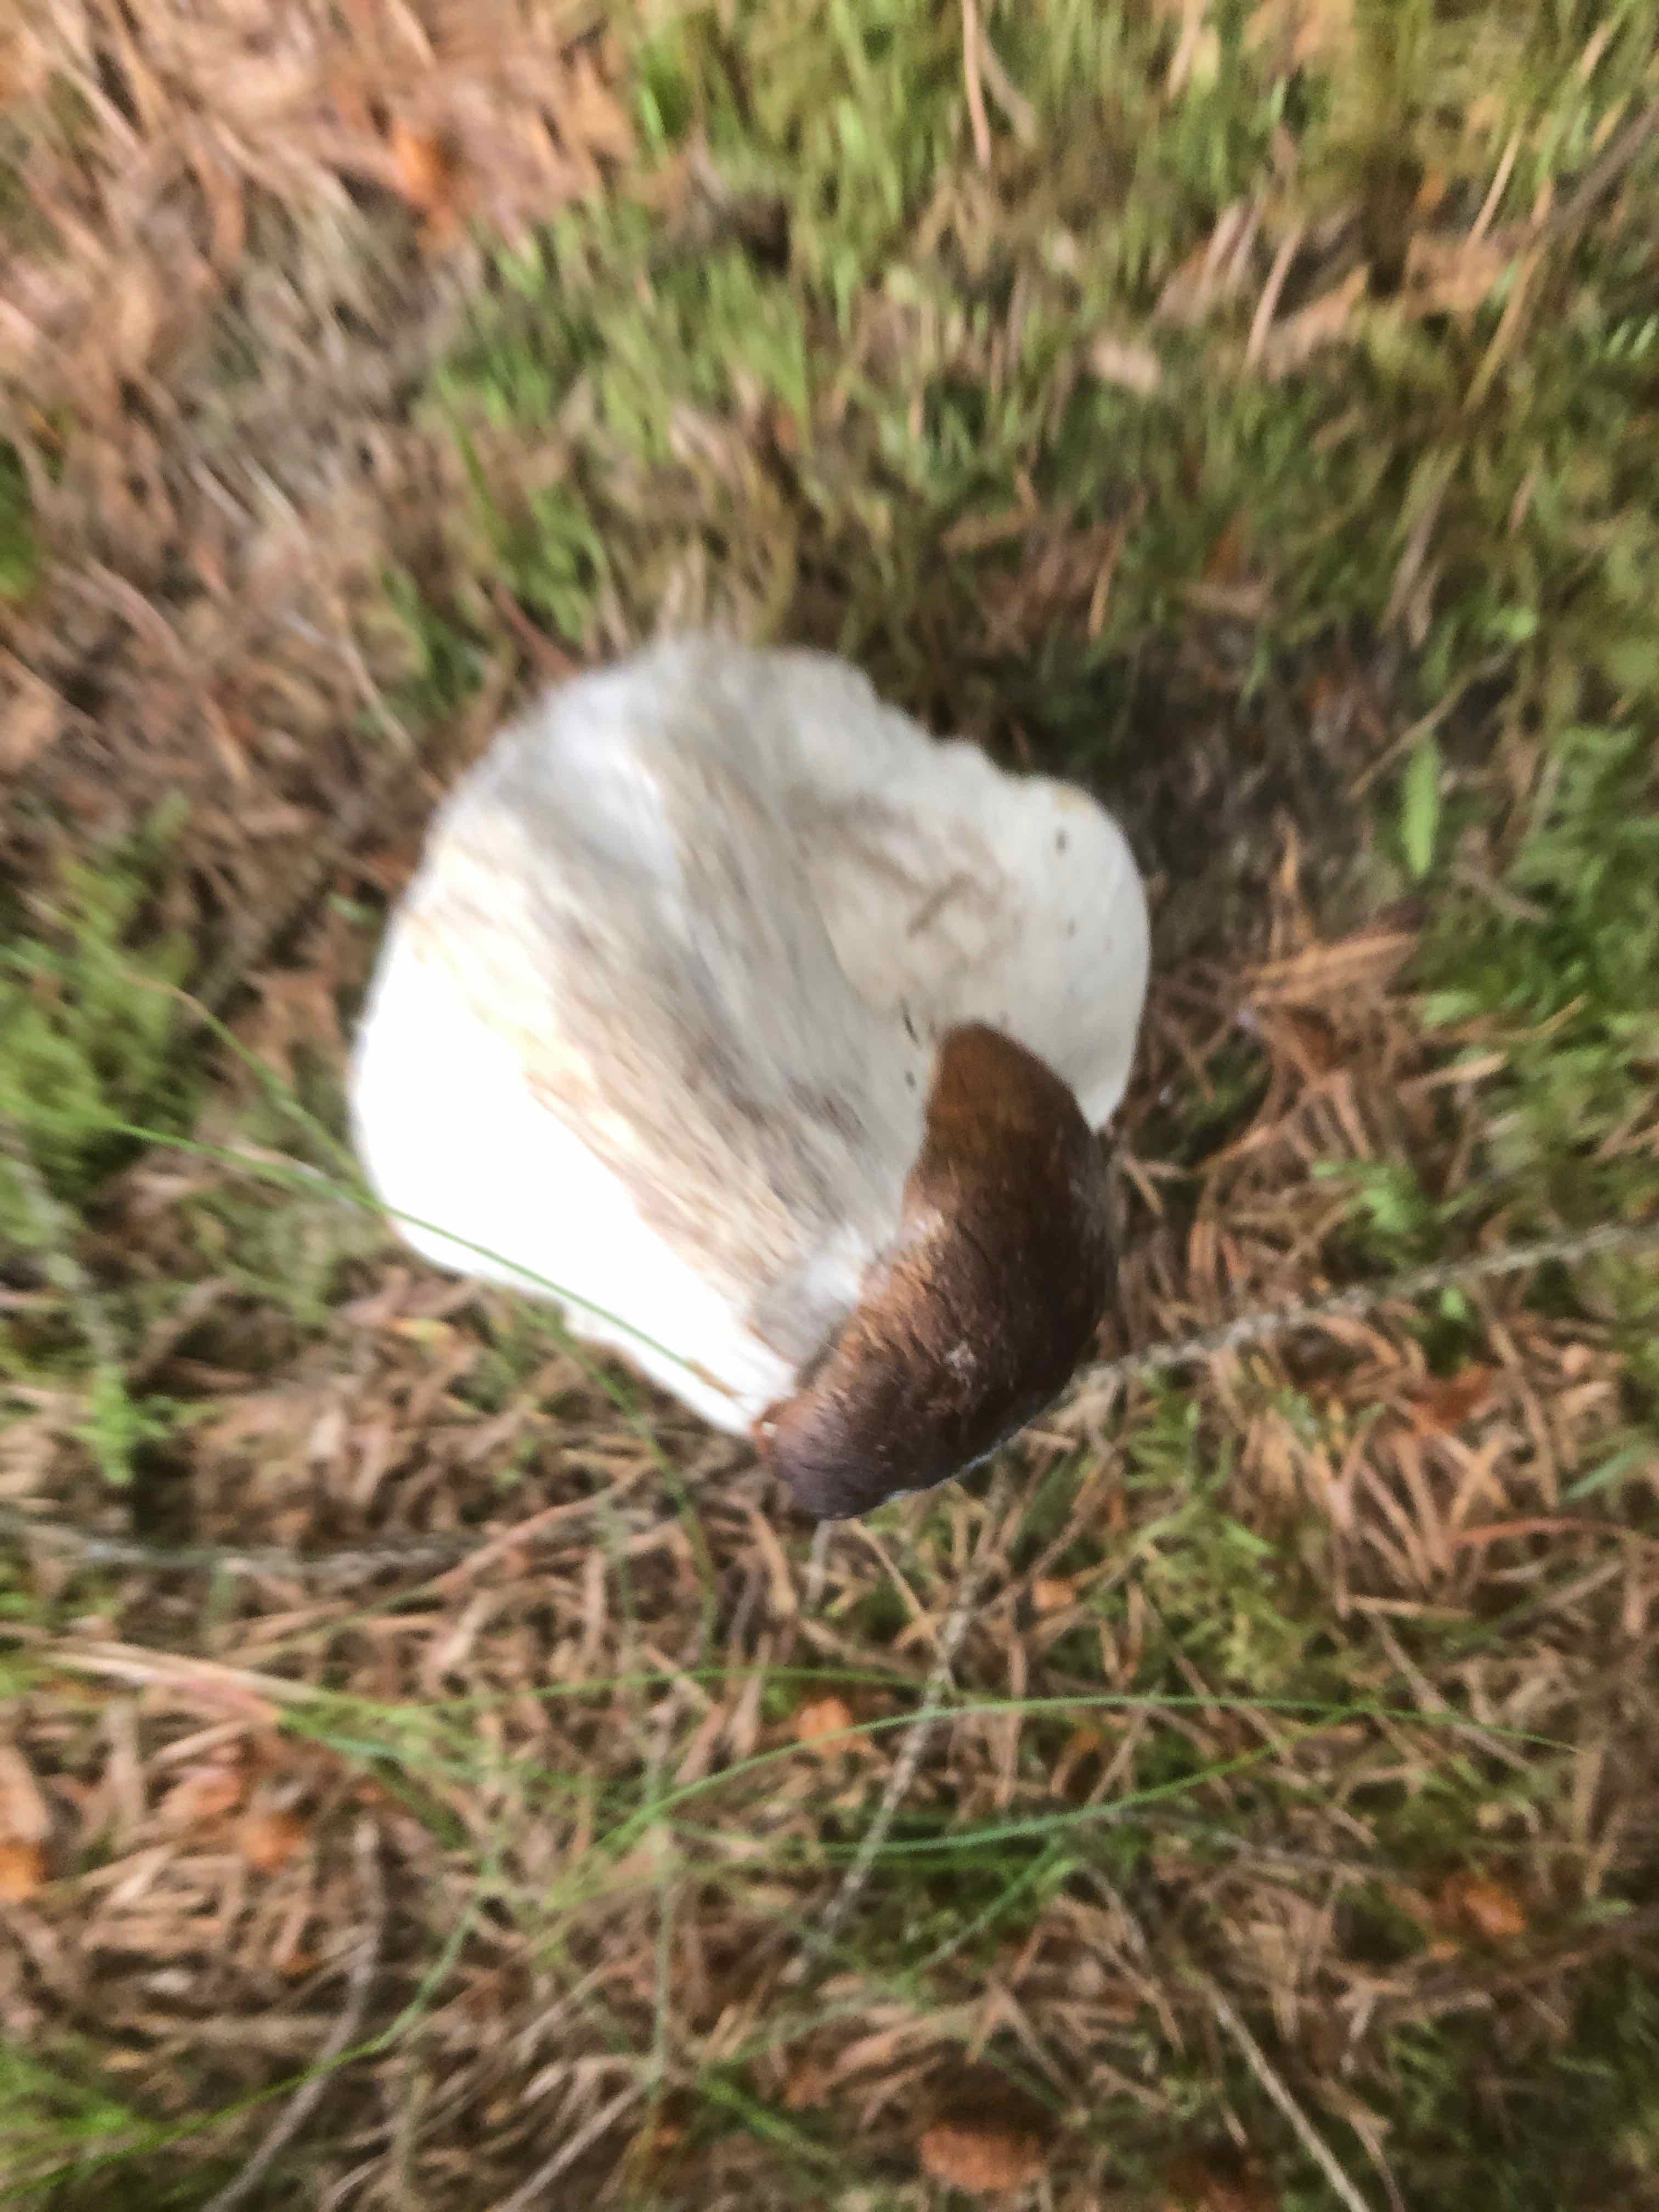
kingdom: Fungi
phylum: Ascomycota
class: Sordariomycetes
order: Hypocreales
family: Hypocreaceae
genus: Hypomyces
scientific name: Hypomyces chrysospermus
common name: gulskimmel-snylteskorpe
